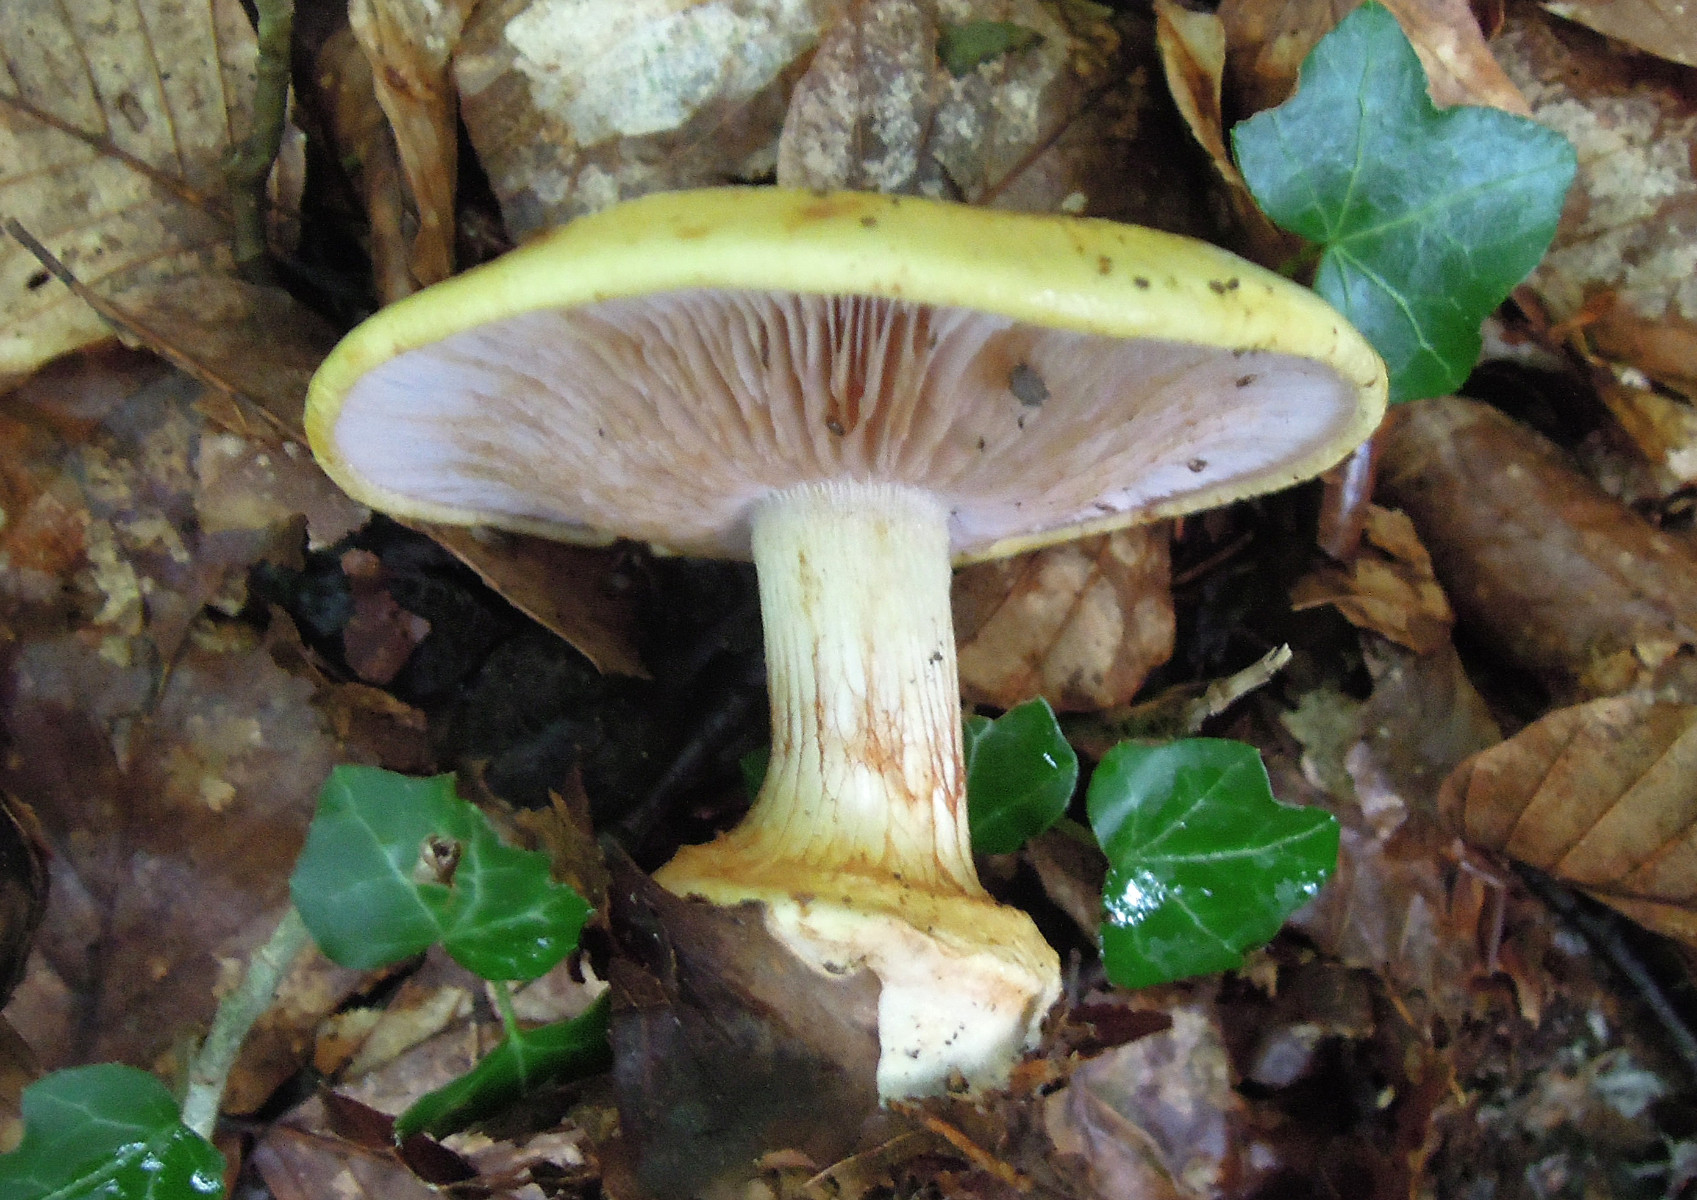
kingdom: Fungi
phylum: Basidiomycota
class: Agaricomycetes
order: Agaricales
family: Cortinariaceae
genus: Calonarius
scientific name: Calonarius callochrous
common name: lillabladet slørhat
